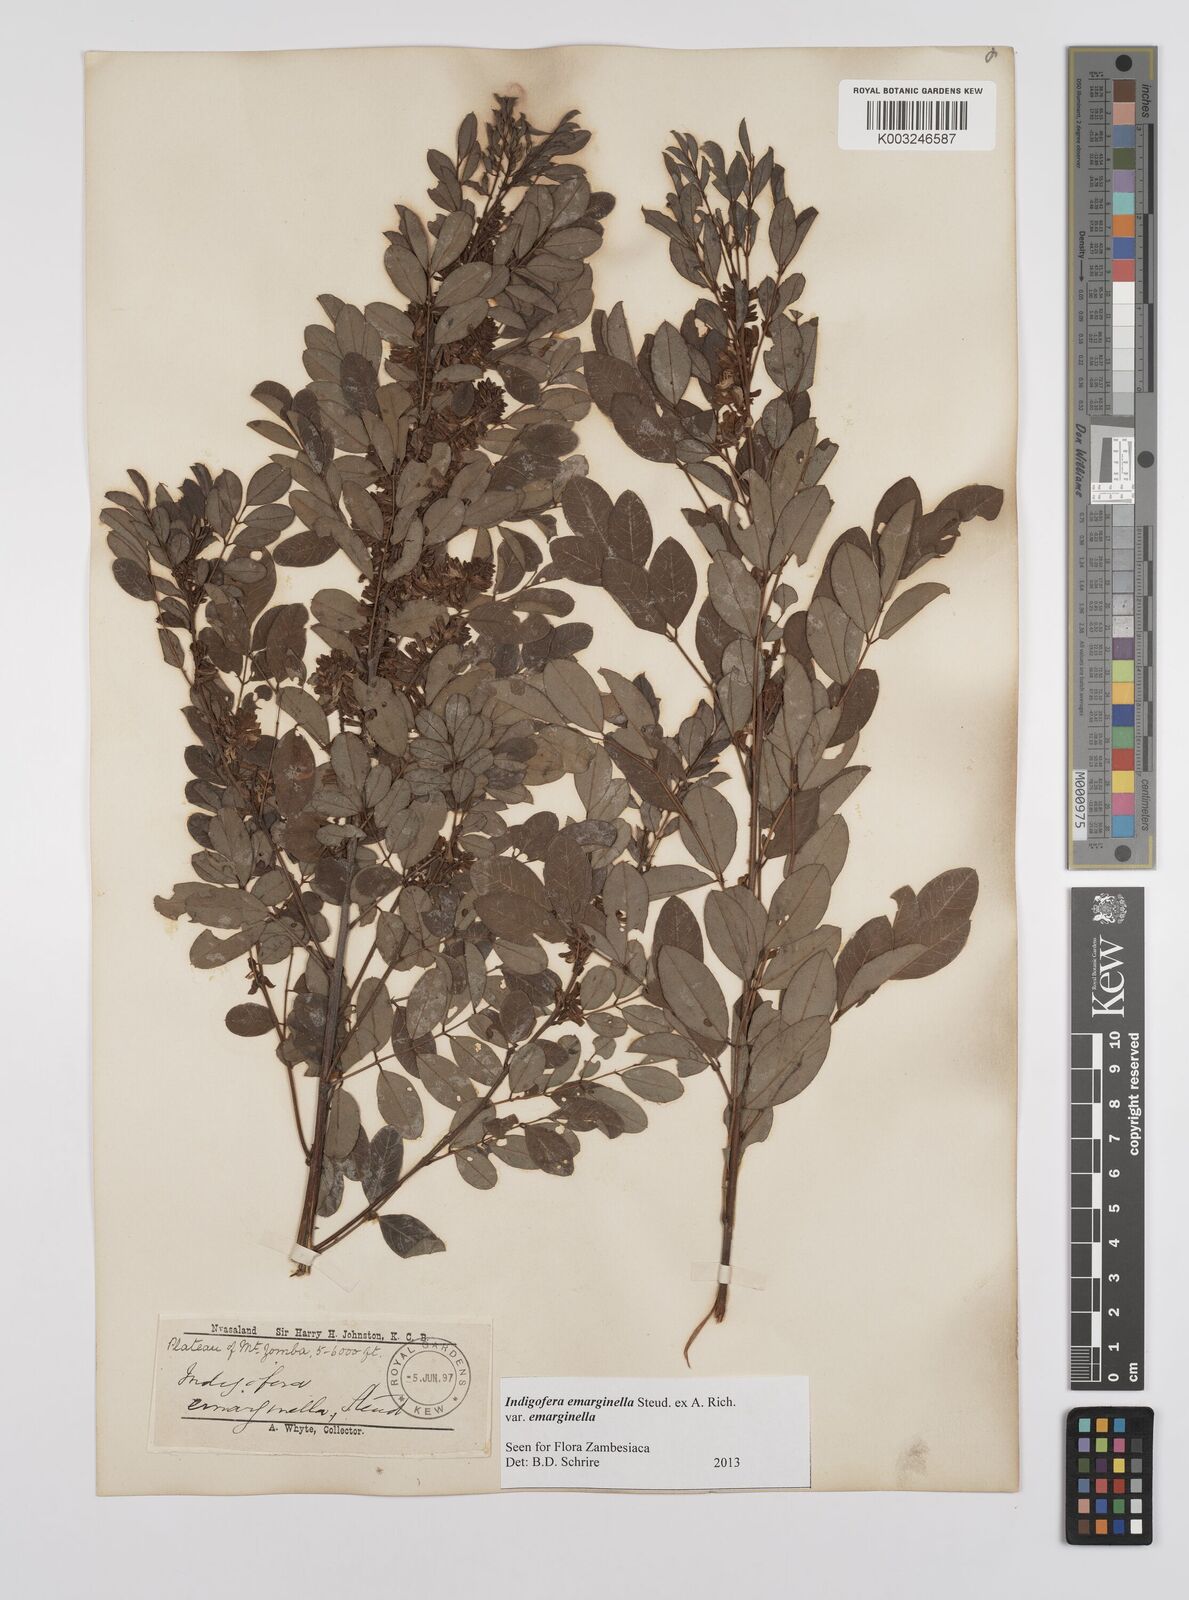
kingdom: Plantae
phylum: Tracheophyta
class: Magnoliopsida
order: Fabales
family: Fabaceae
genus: Indigofera
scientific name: Indigofera emarginella
